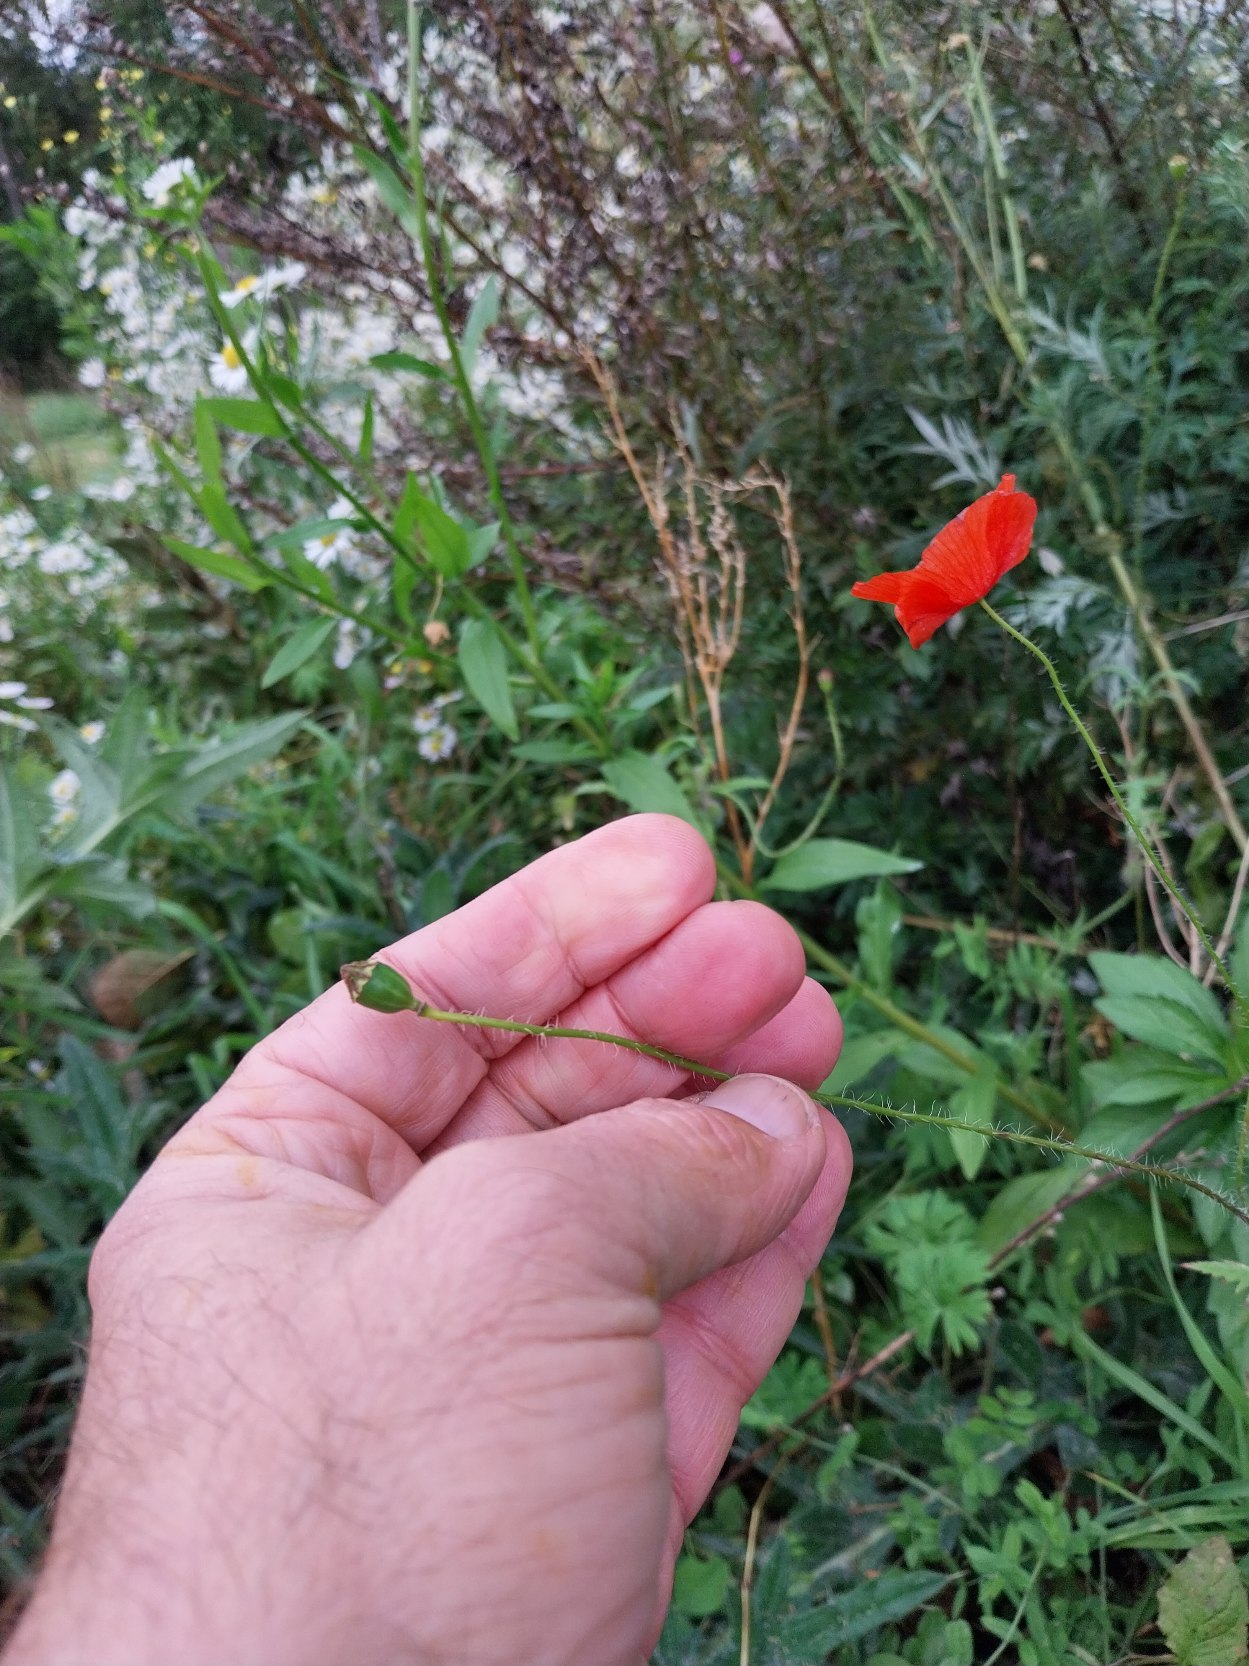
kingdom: Plantae
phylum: Tracheophyta
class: Magnoliopsida
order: Ranunculales
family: Papaveraceae
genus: Papaver
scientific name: Papaver rhoeas
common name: Korn-valmue
